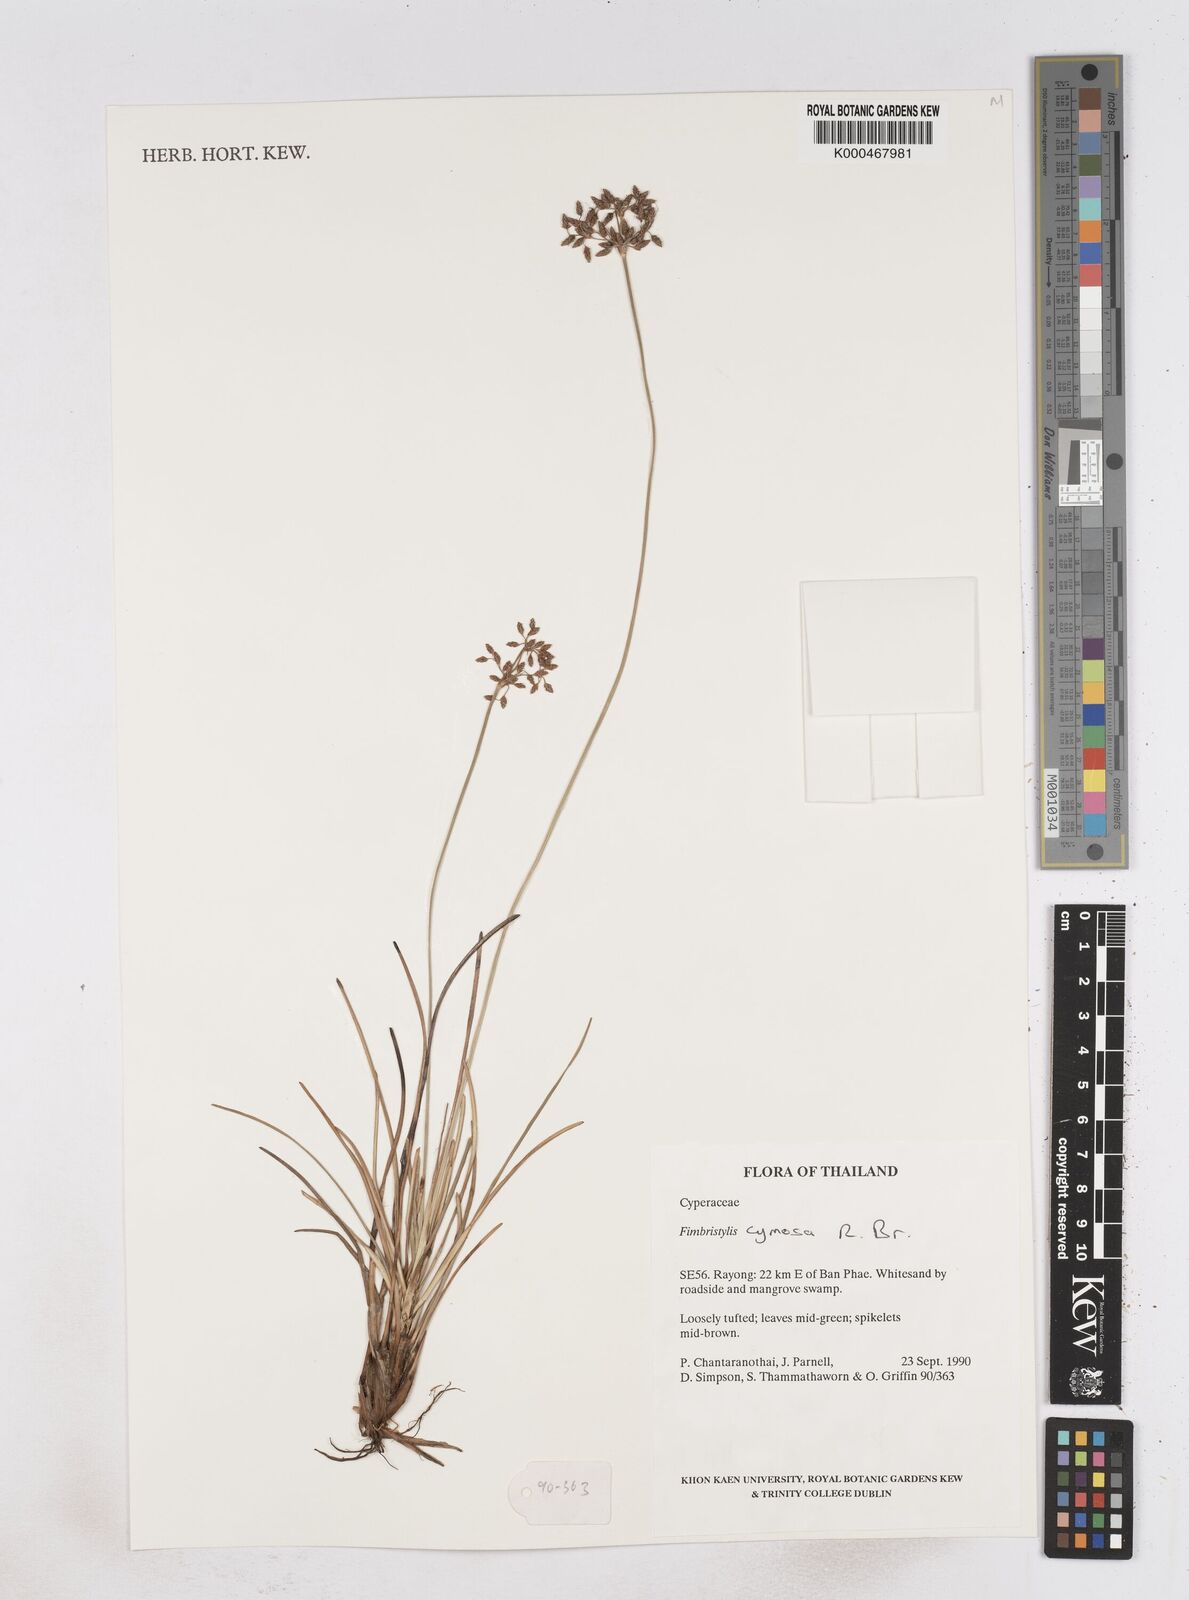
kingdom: Plantae
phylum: Tracheophyta
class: Liliopsida
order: Poales
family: Cyperaceae
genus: Fimbristylis
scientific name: Fimbristylis cymosa
